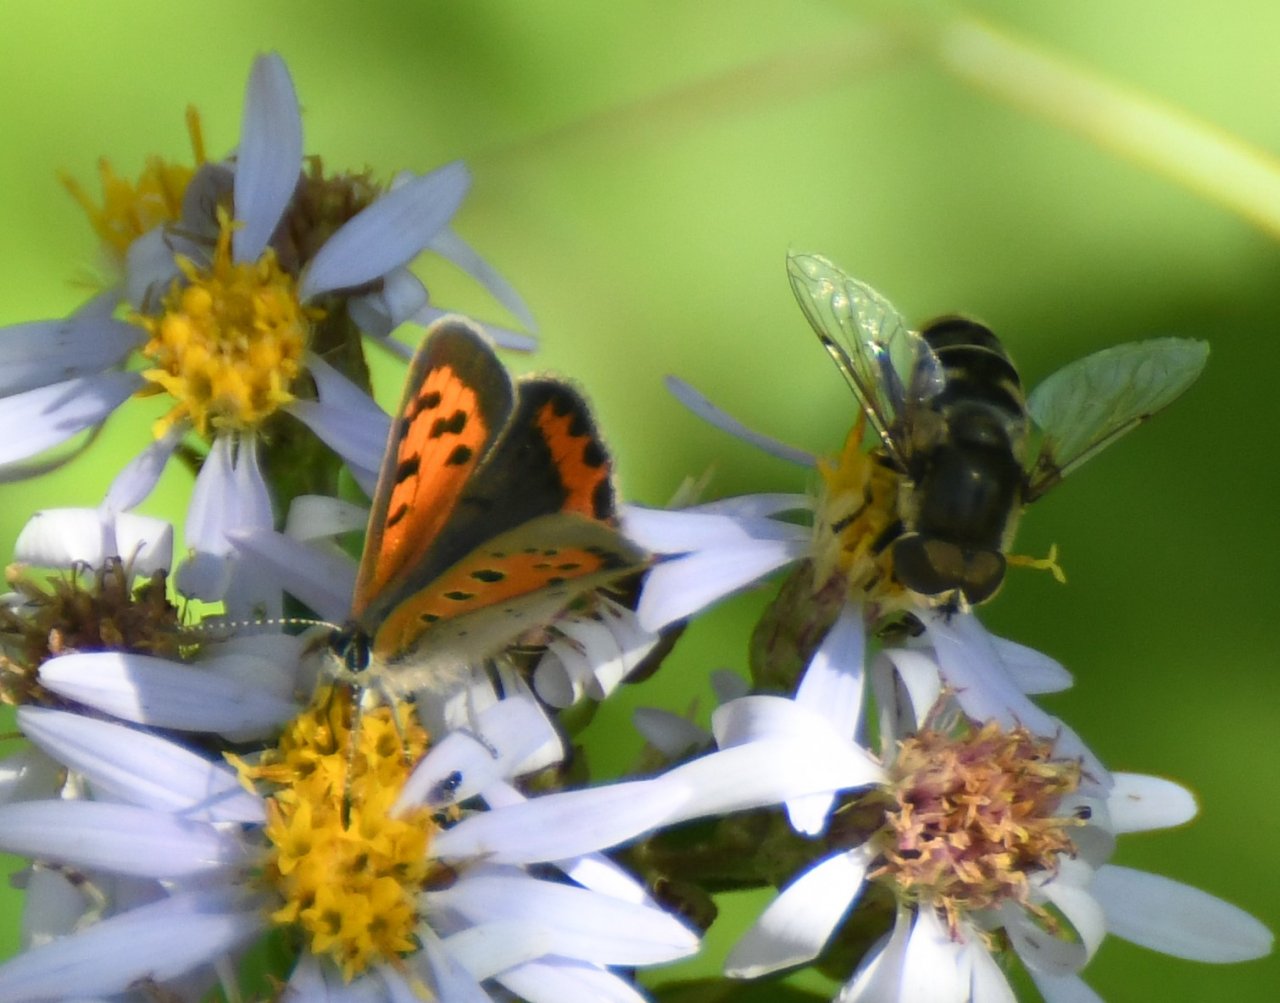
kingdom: Animalia
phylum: Arthropoda
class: Insecta
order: Lepidoptera
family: Lycaenidae
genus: Lycaena
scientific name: Lycaena phlaeas
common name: American Copper
